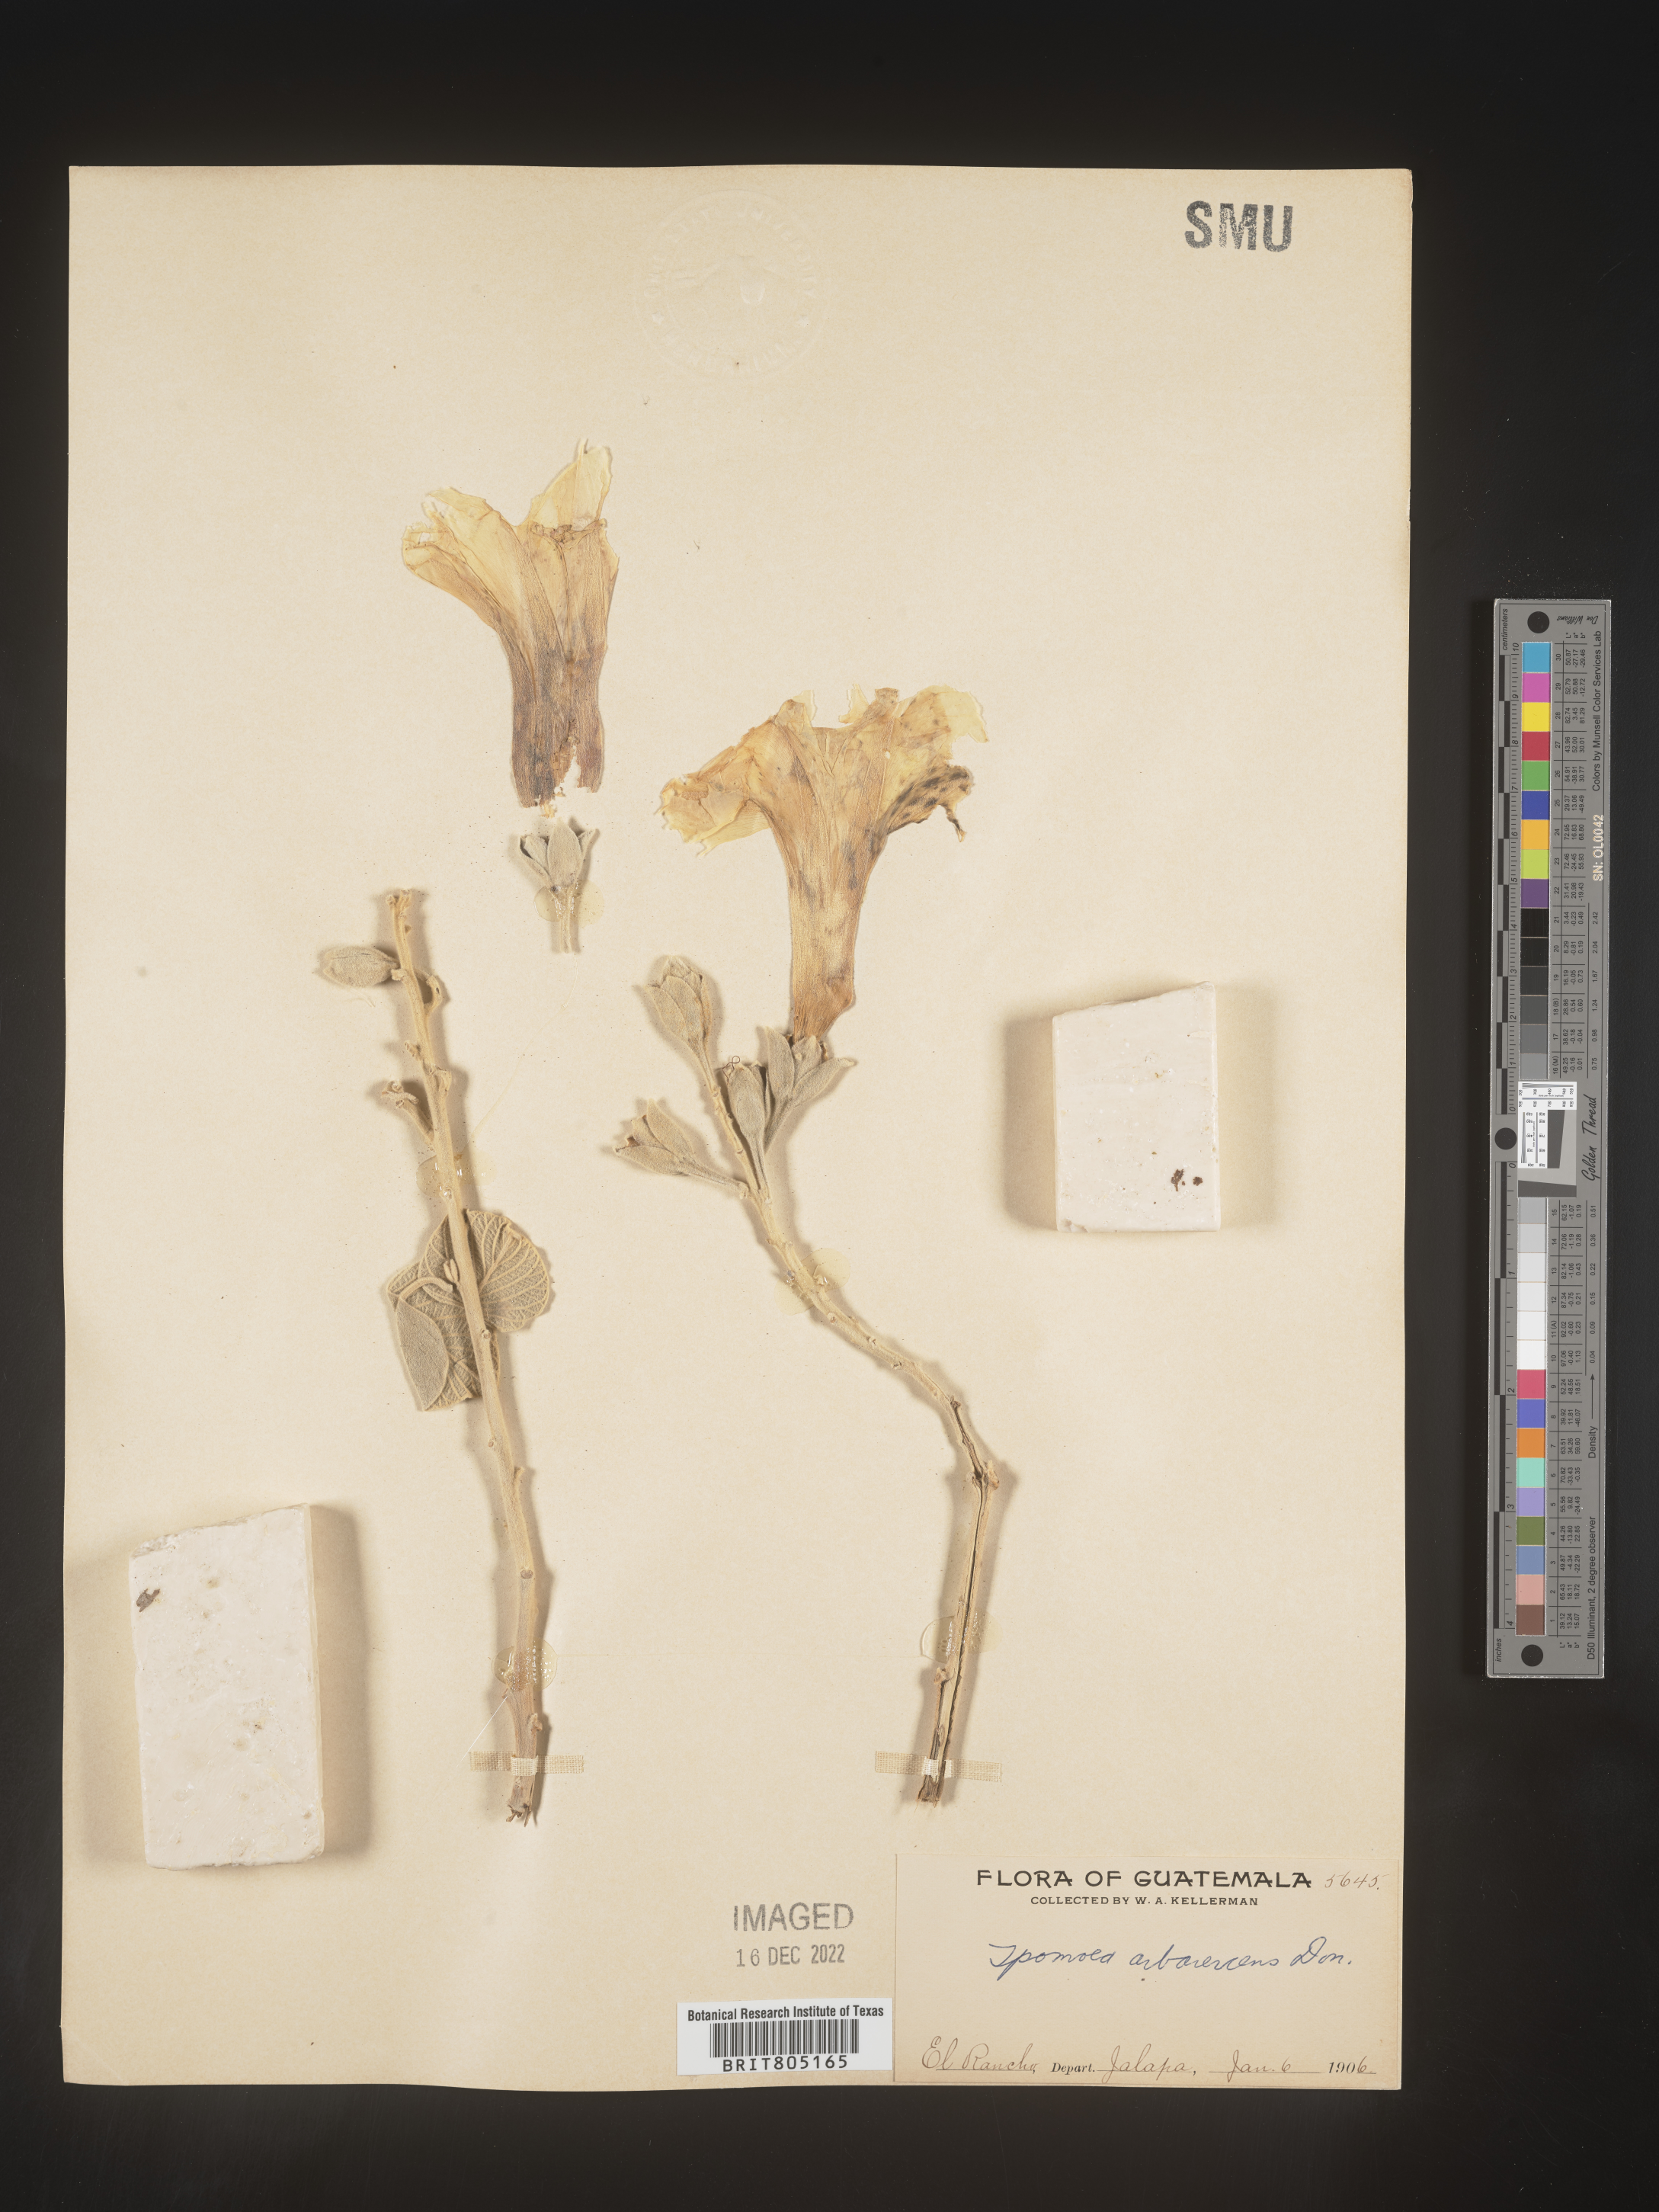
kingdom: Plantae
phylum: Tracheophyta
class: Magnoliopsida
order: Solanales
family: Convolvulaceae
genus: Ipomoea
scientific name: Ipomoea
